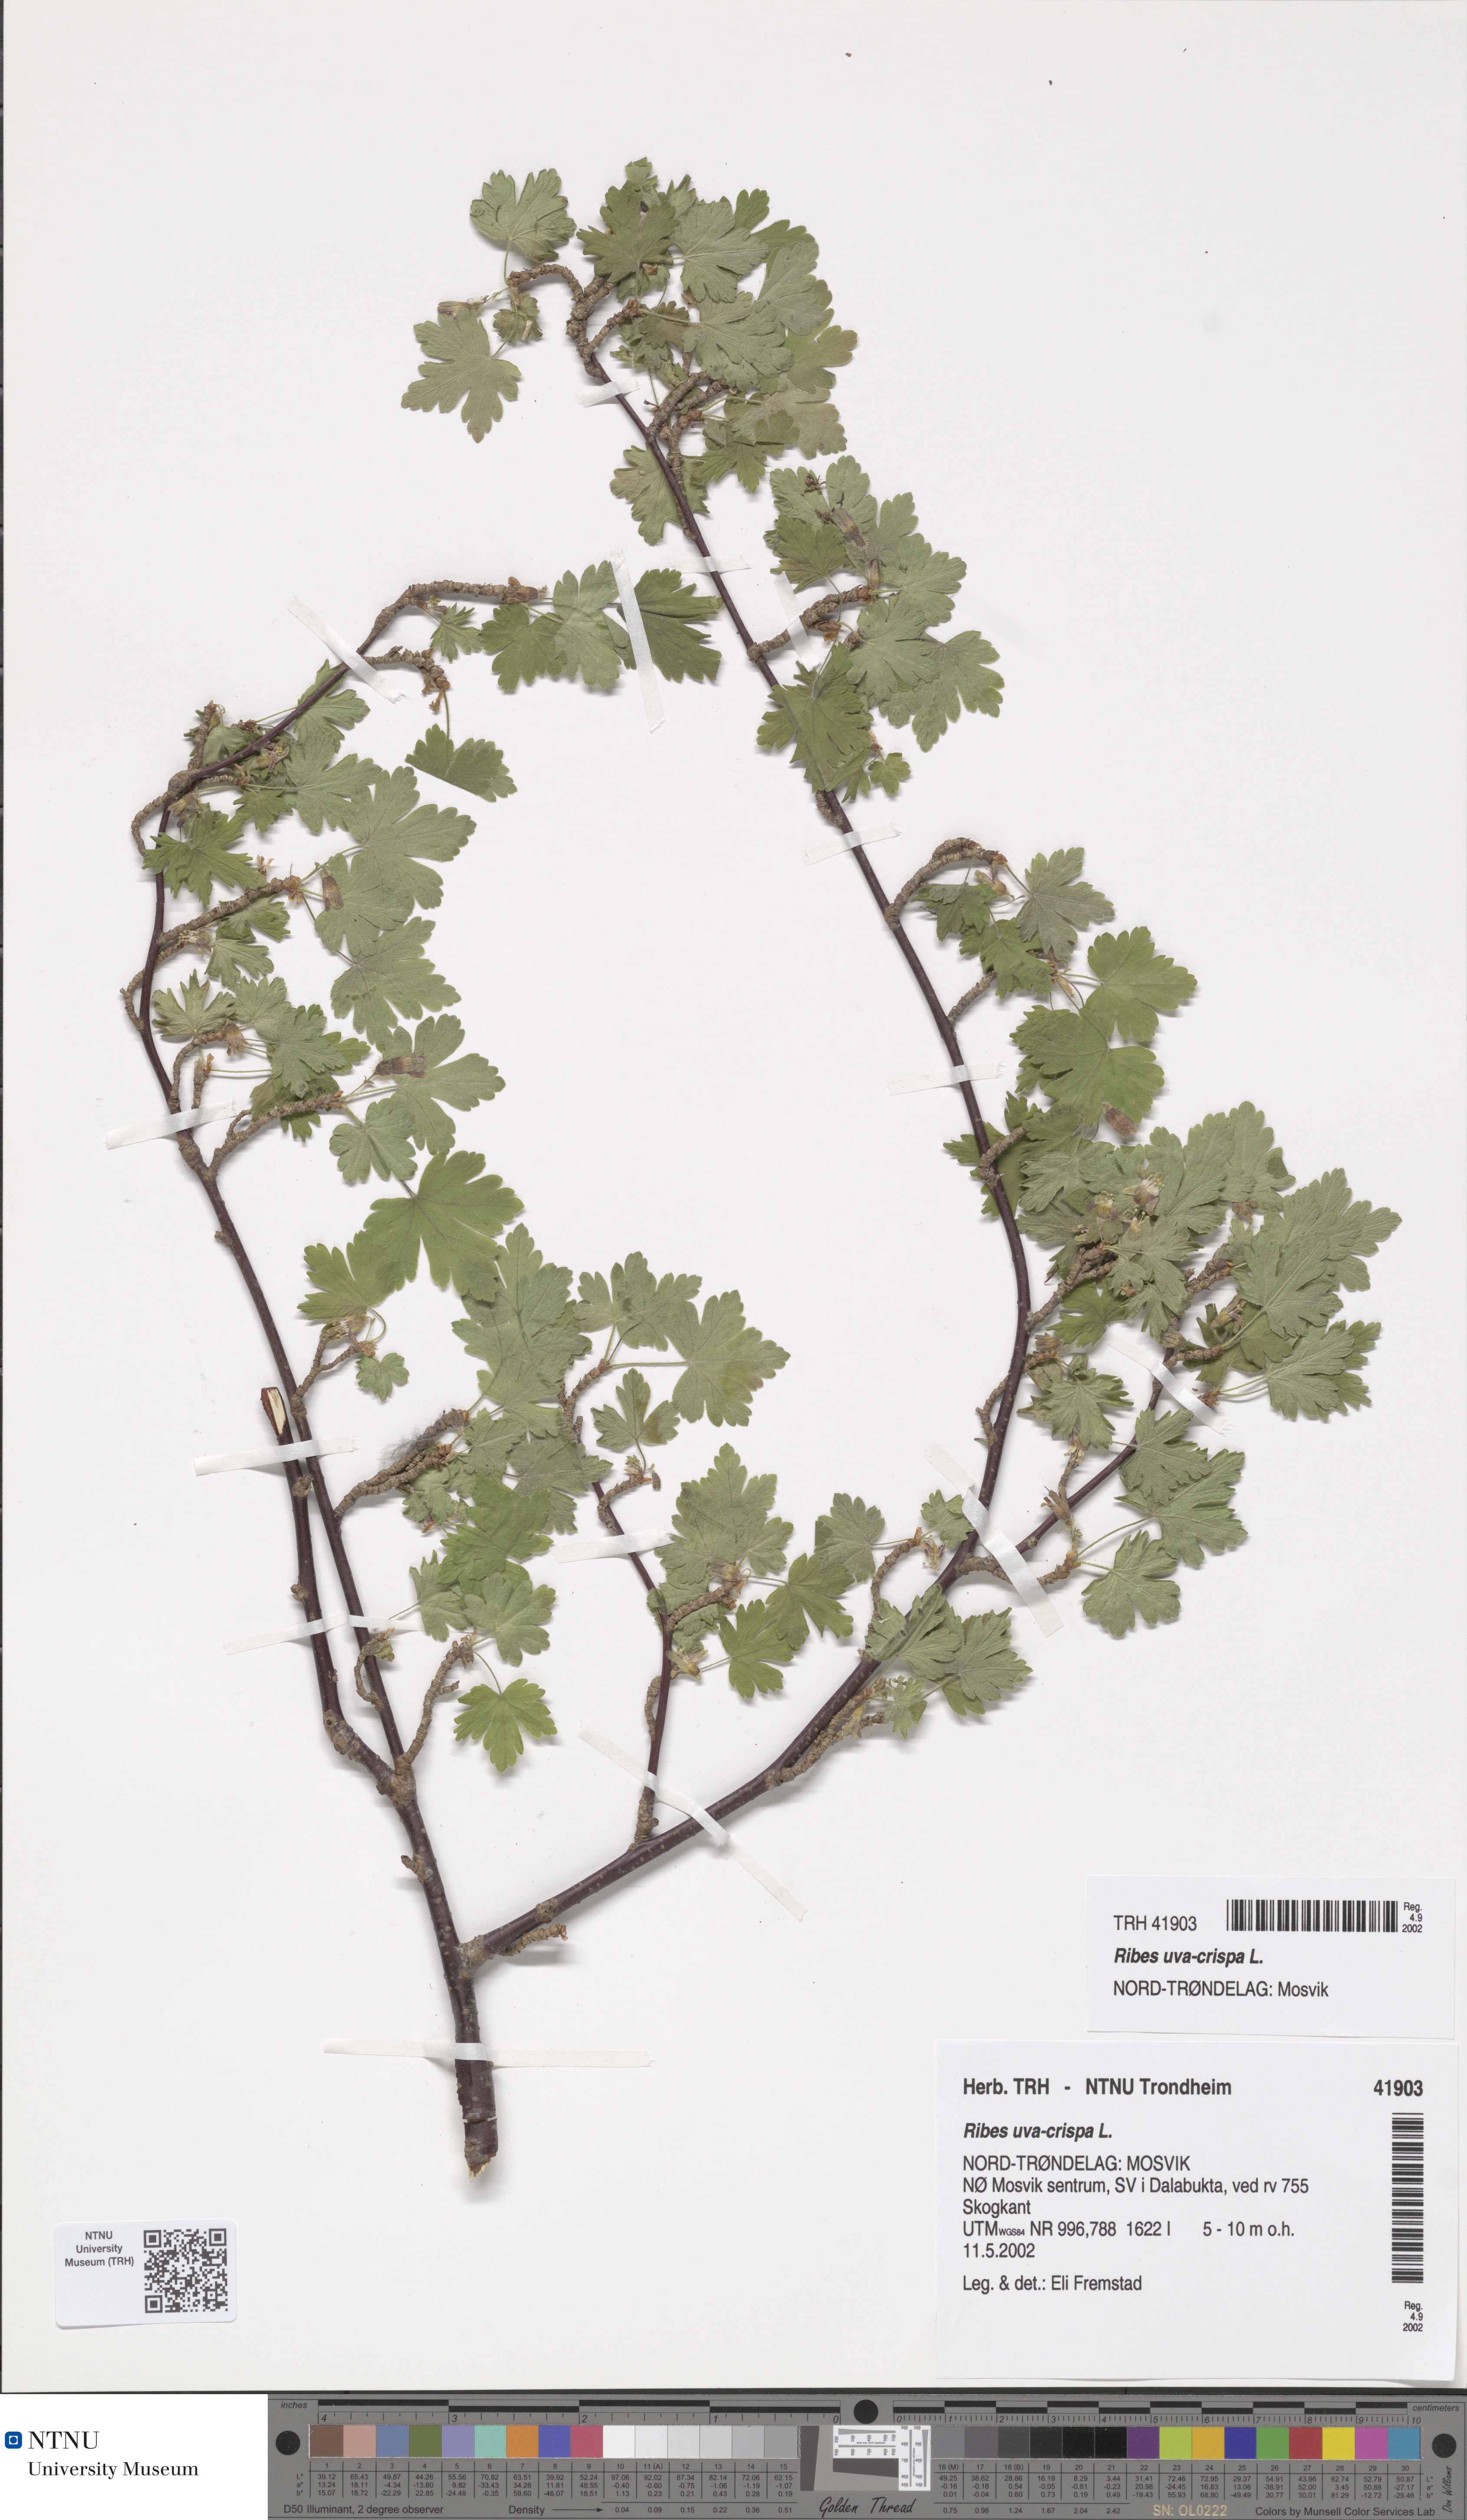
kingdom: Plantae
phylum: Tracheophyta
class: Magnoliopsida
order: Saxifragales
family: Grossulariaceae
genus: Ribes
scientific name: Ribes uva-crispa
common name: Gooseberry
